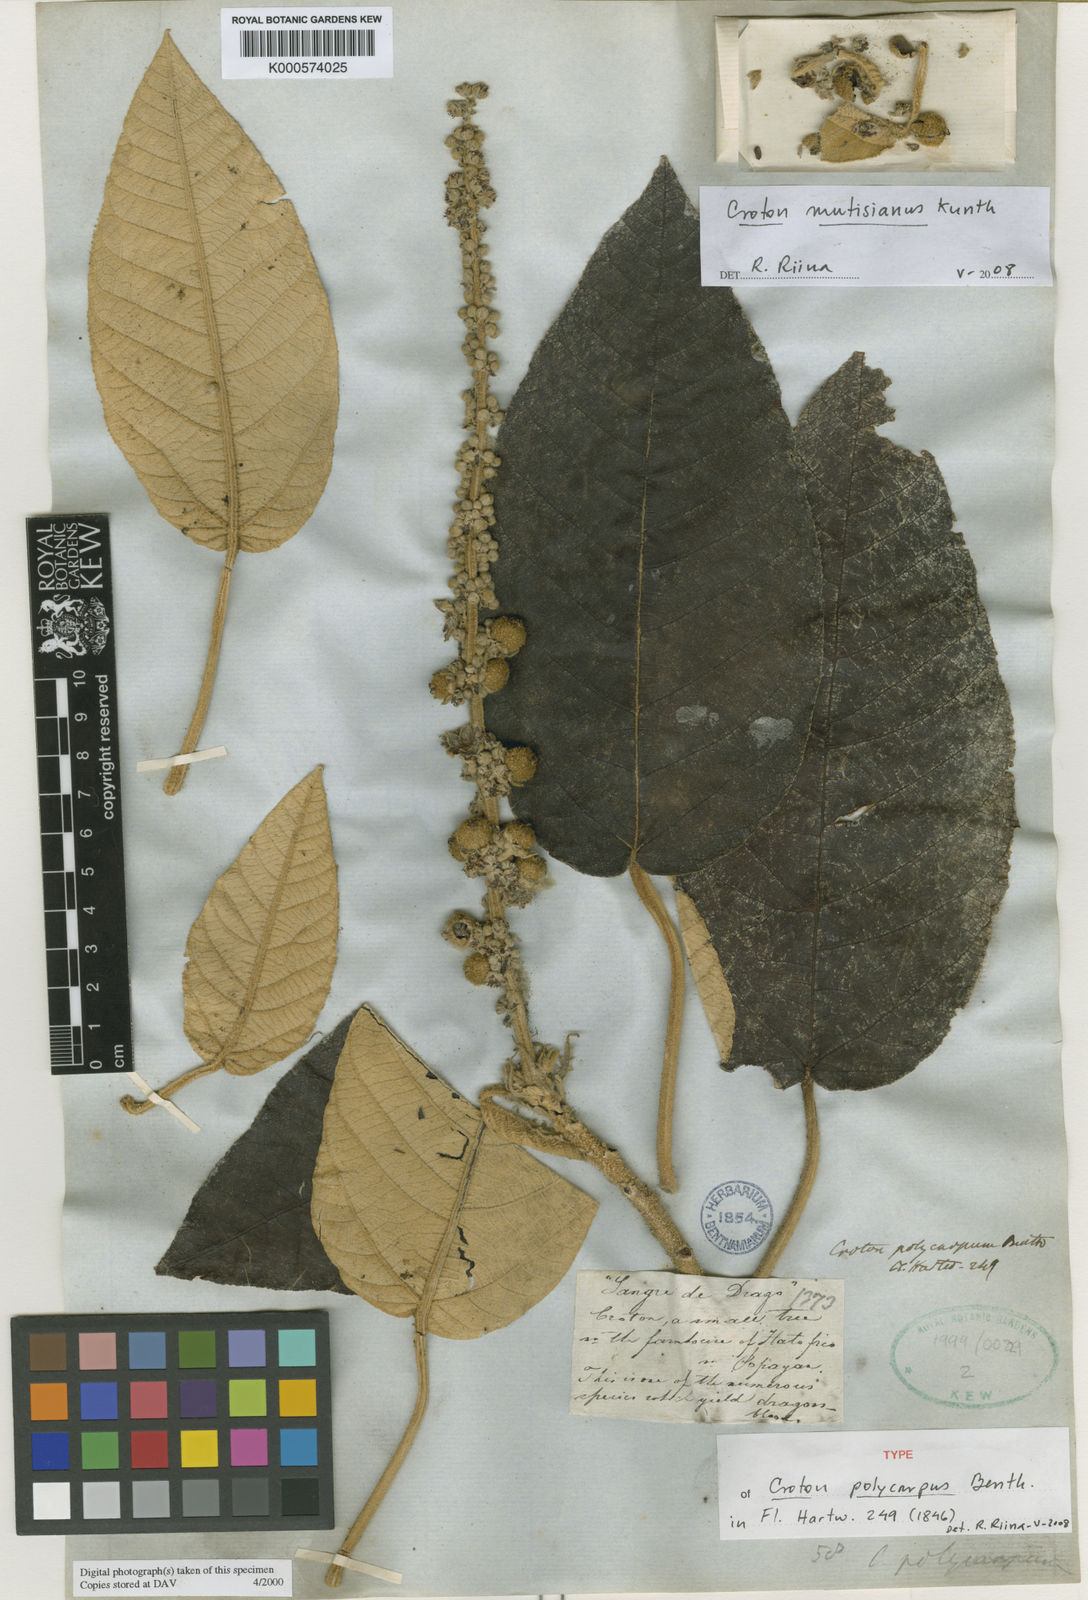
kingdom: Plantae
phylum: Tracheophyta
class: Magnoliopsida
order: Malpighiales
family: Euphorbiaceae
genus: Croton
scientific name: Croton mutisianus
